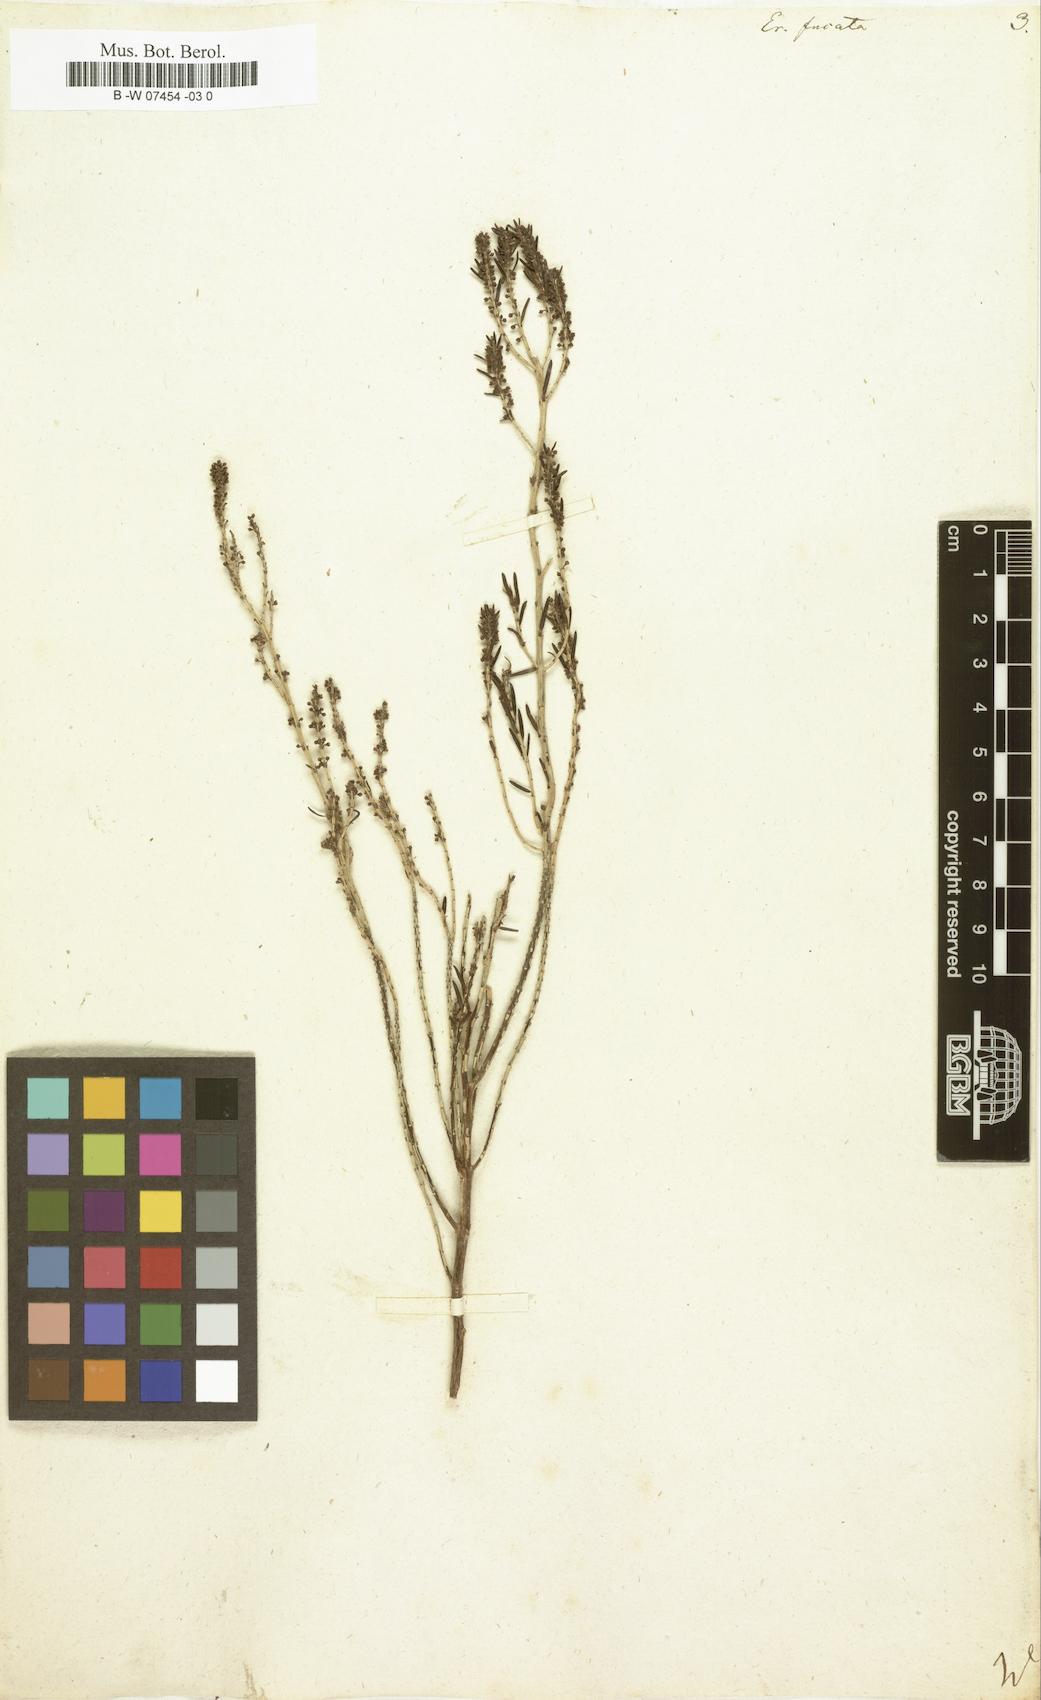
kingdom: Plantae
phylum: Tracheophyta
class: Magnoliopsida
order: Ericales
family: Ericaceae
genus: Erica
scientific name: Erica scoparia
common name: Green heather
